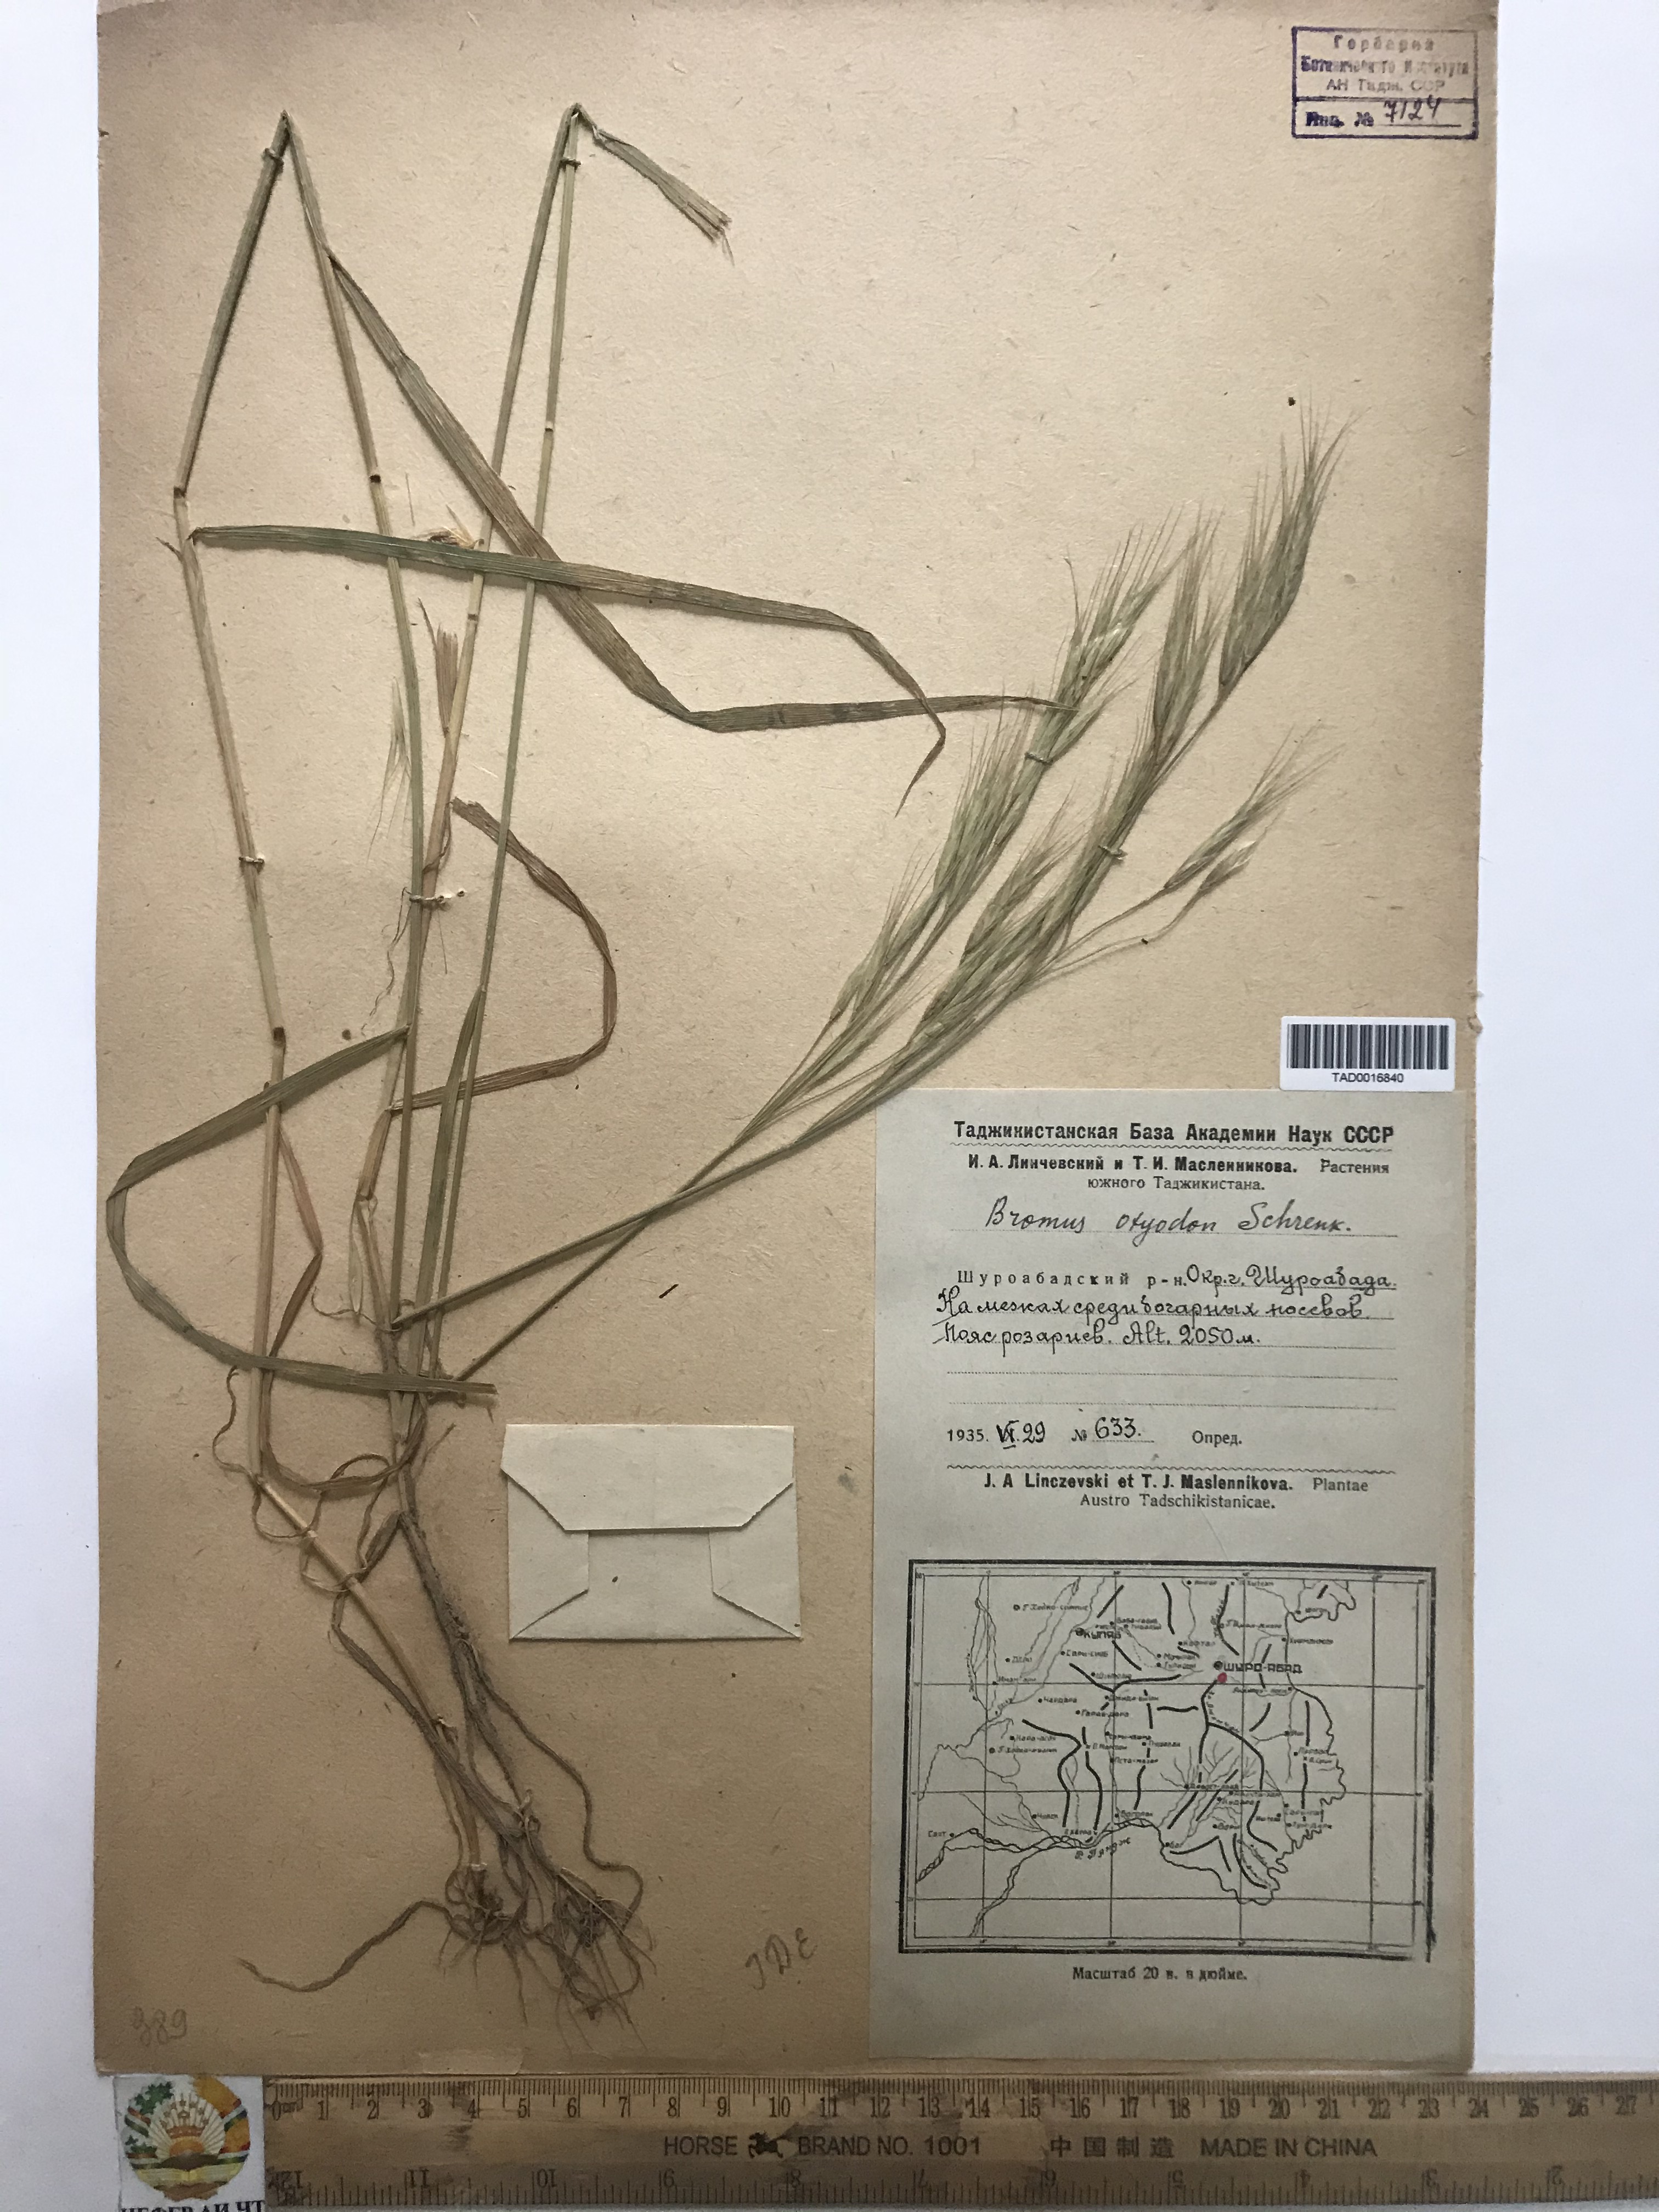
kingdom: Plantae
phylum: Tracheophyta
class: Liliopsida
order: Poales
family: Poaceae
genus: Bromus
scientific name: Bromus oxyodon
